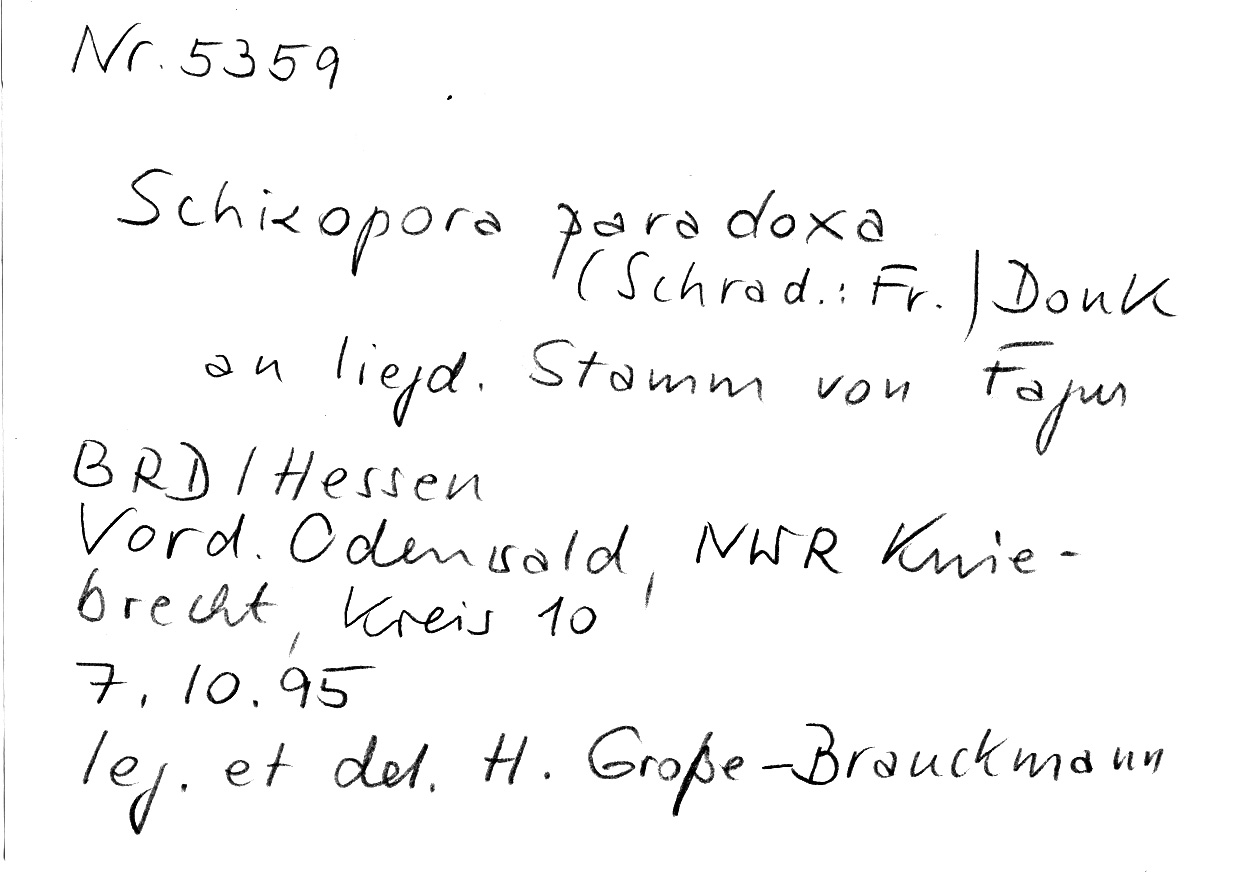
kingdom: Plantae
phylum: Tracheophyta
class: Magnoliopsida
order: Fagales
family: Fagaceae
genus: Fagus
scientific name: Fagus sylvatica
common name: Beech
